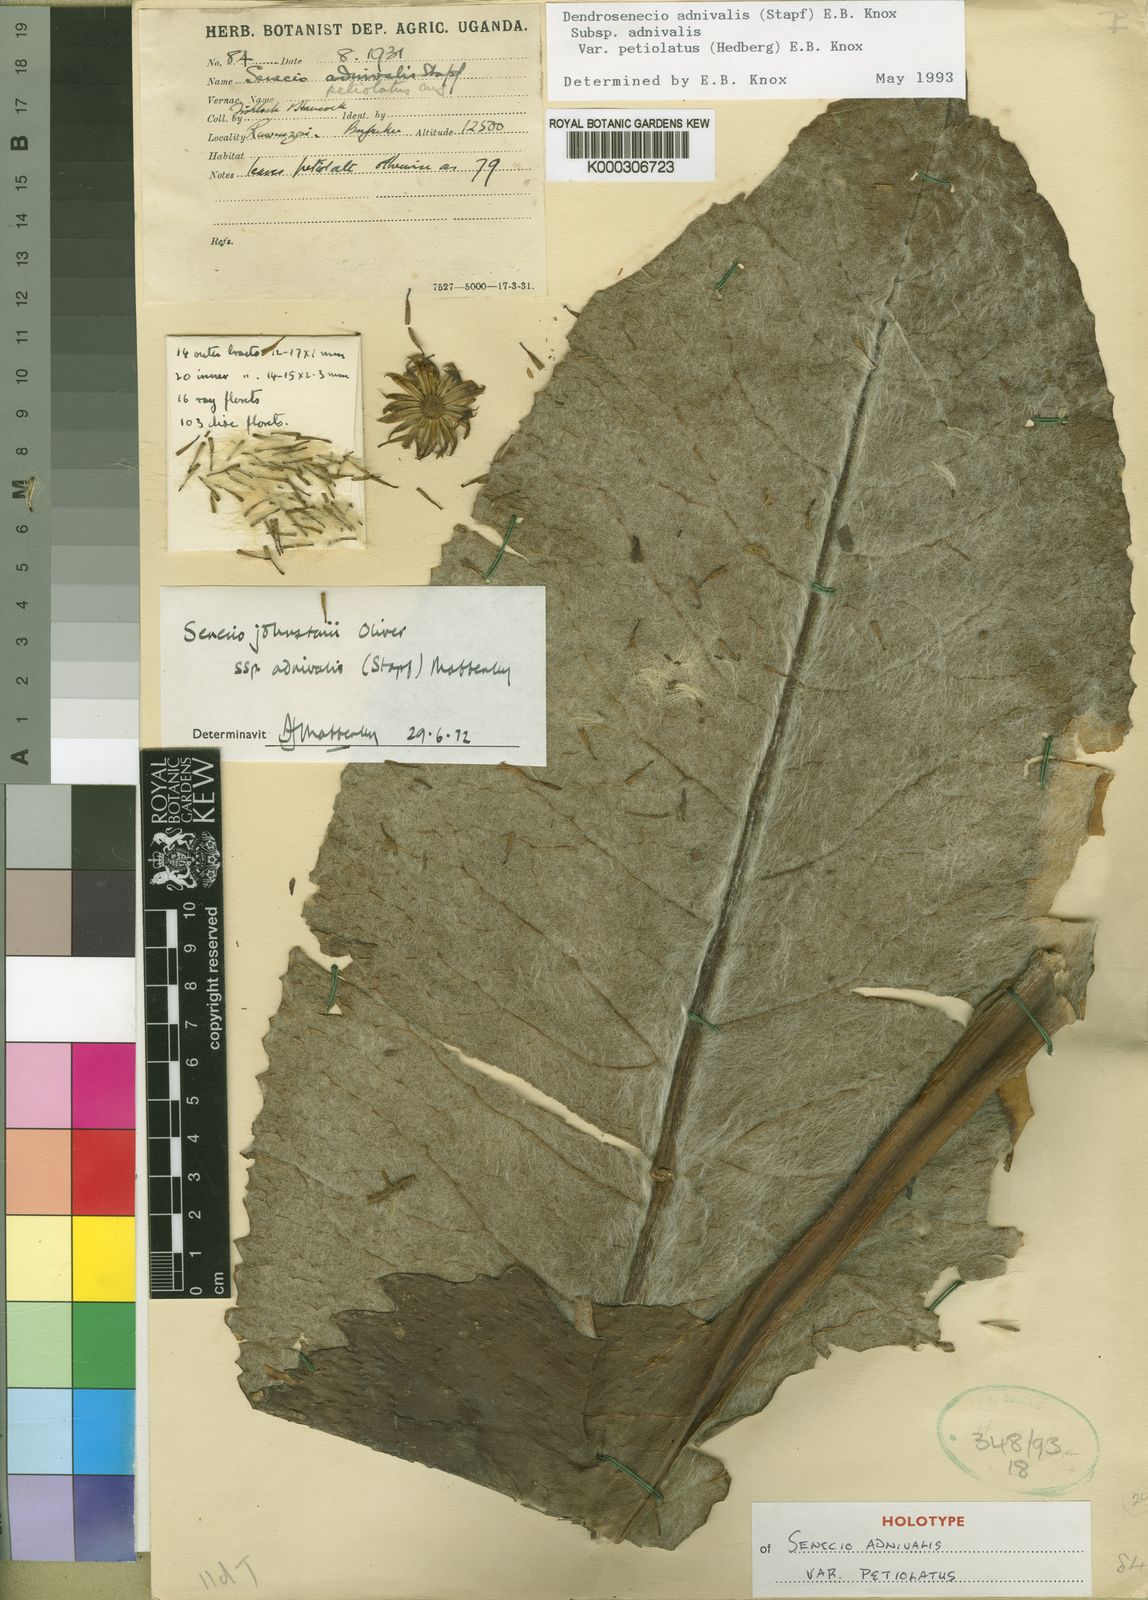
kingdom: Plantae
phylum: Tracheophyta
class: Magnoliopsida
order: Asterales
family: Asteraceae
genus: Dendrosenecio
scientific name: Dendrosenecio adnivalis
